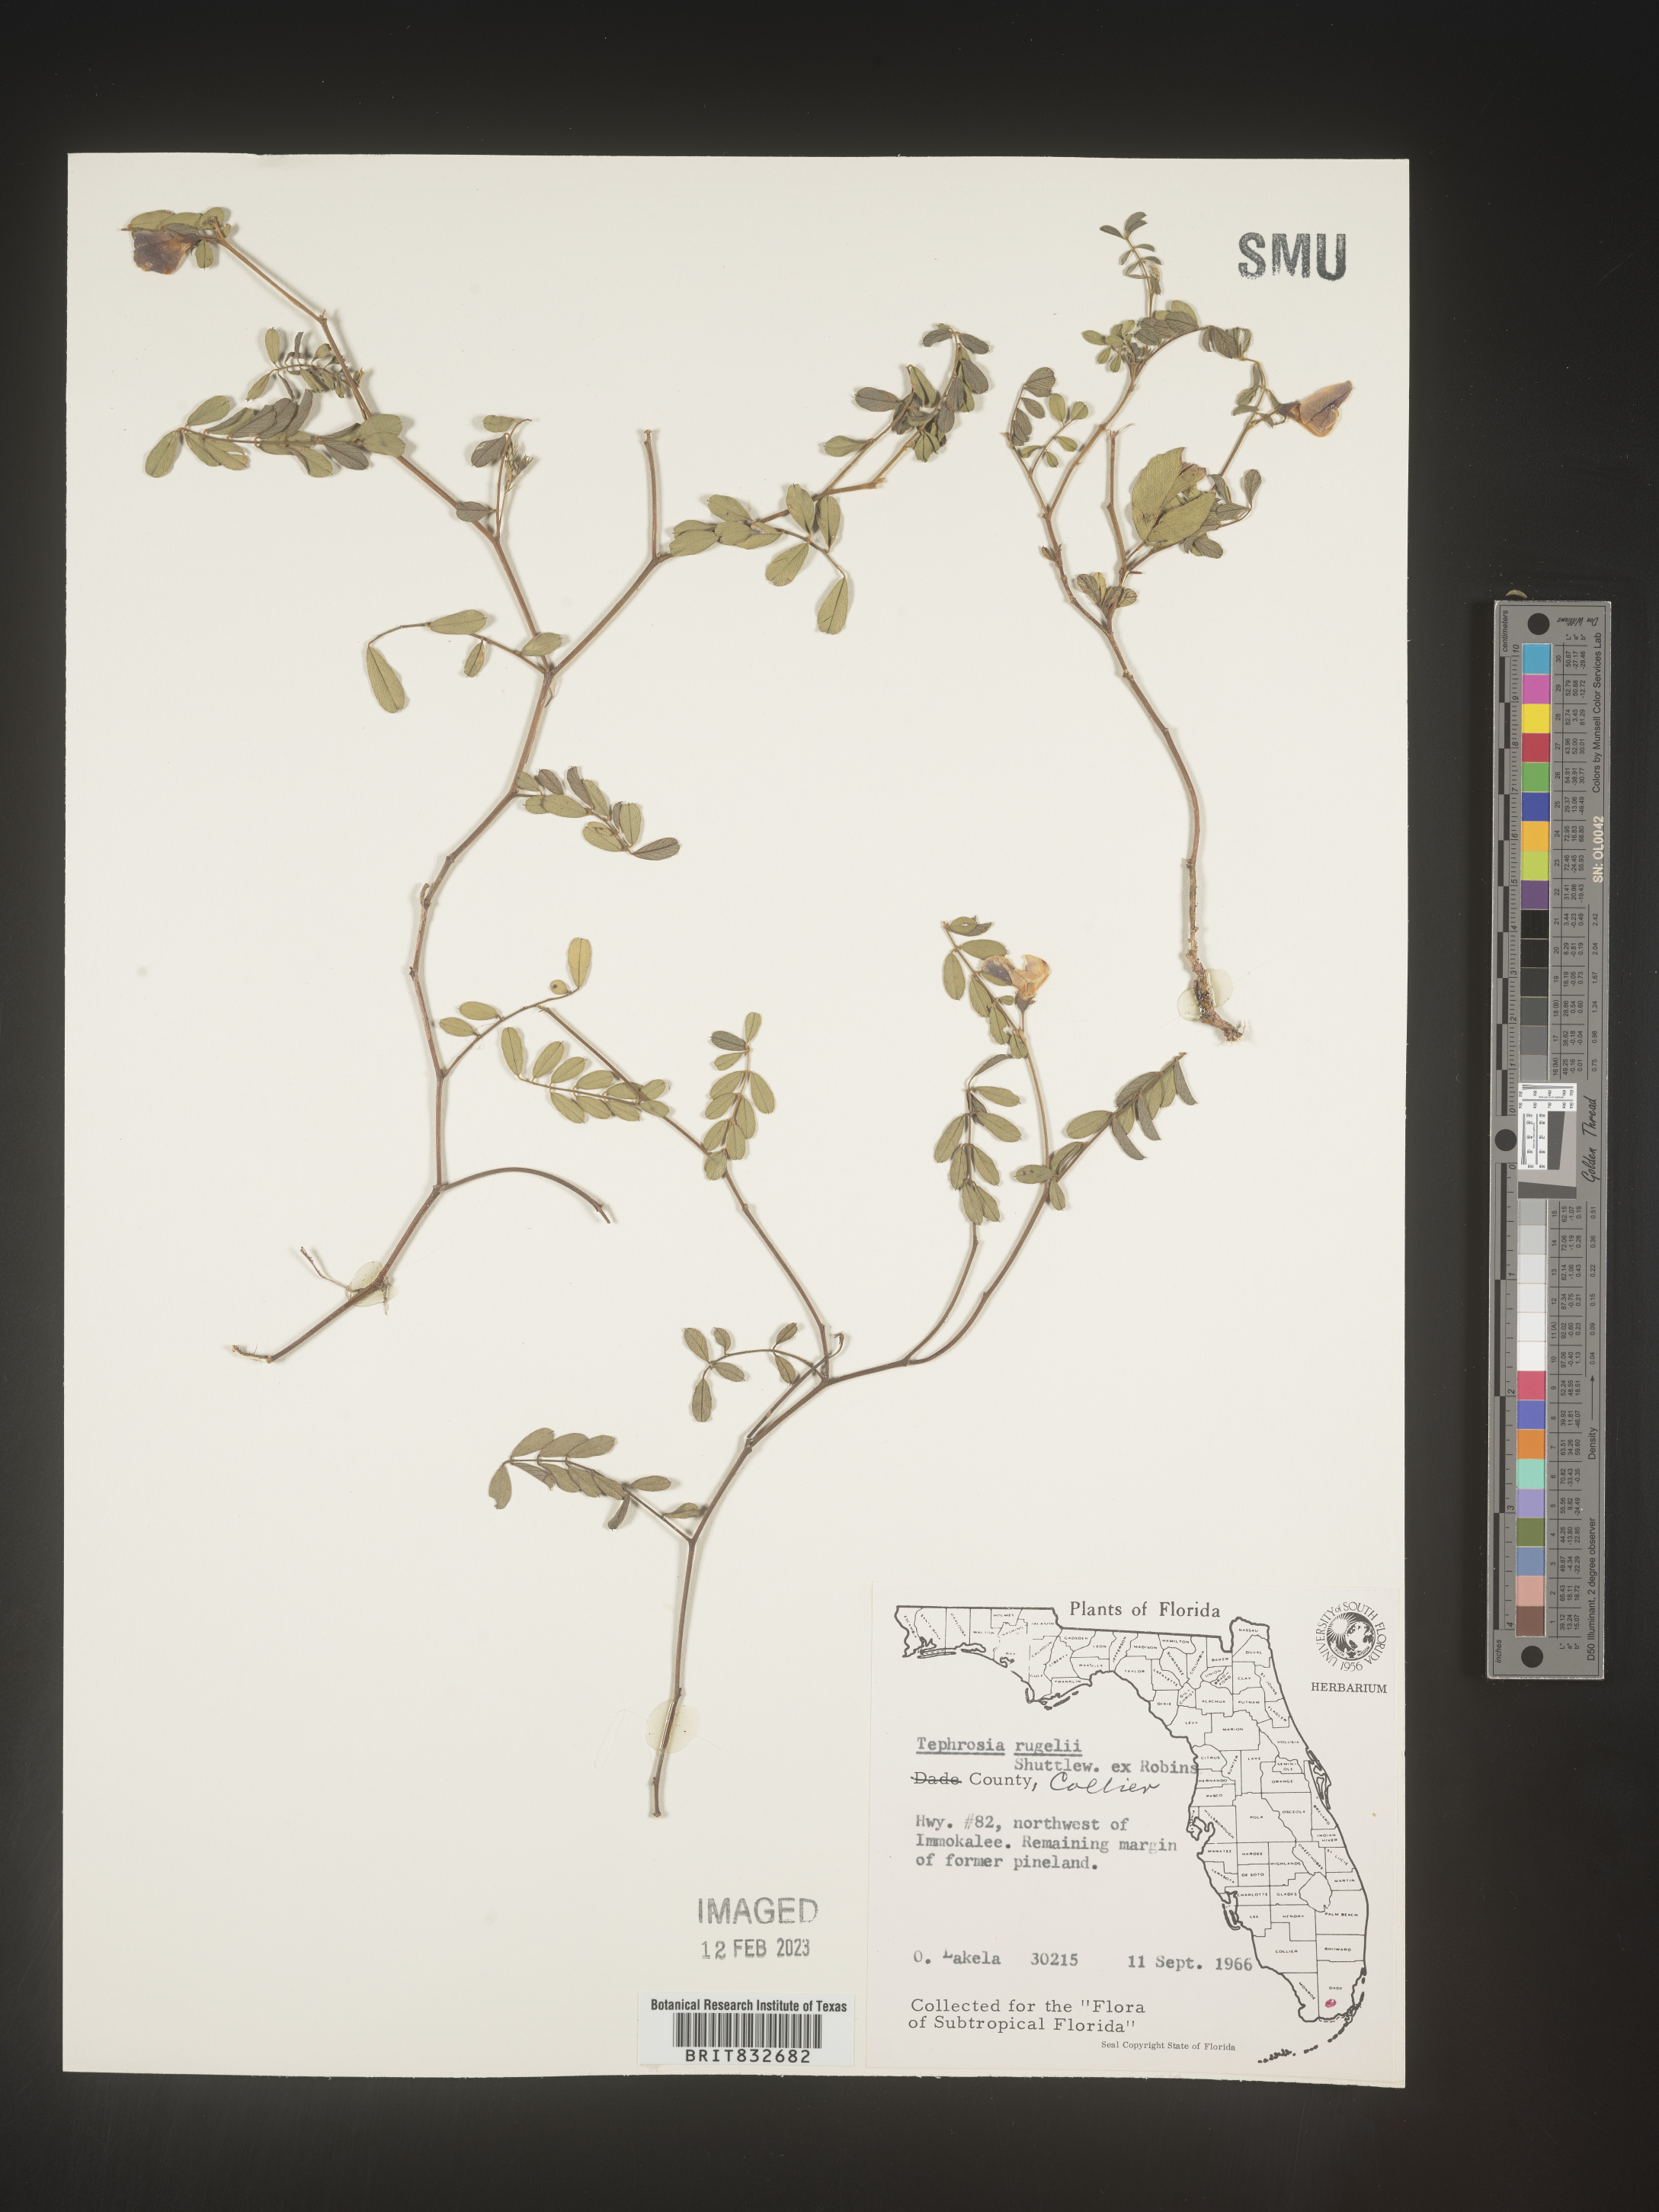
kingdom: Plantae
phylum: Tracheophyta
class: Magnoliopsida
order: Fabales
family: Fabaceae
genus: Tephrosia
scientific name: Tephrosia rugelii
